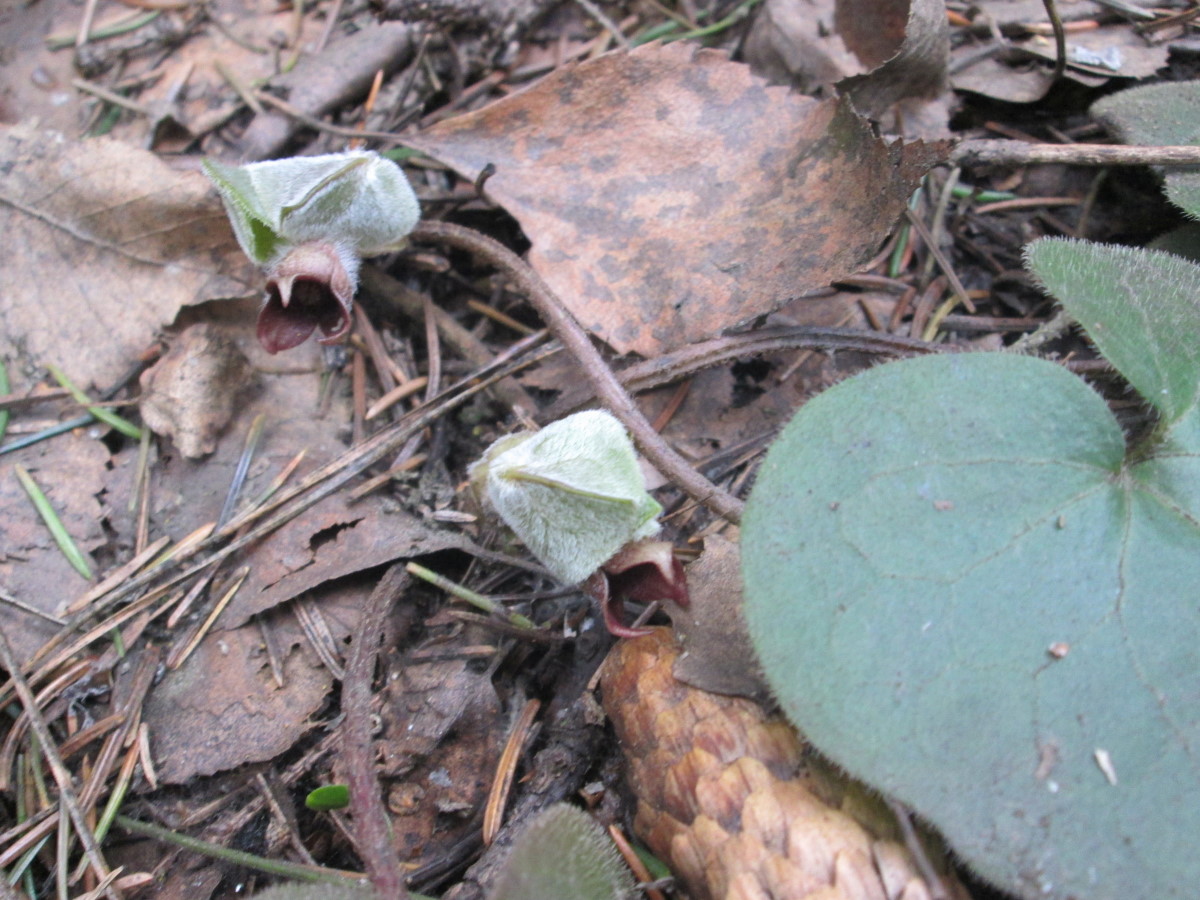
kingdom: Plantae
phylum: Tracheophyta
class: Magnoliopsida
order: Piperales
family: Aristolochiaceae
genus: Asarum
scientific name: Asarum europaeum
